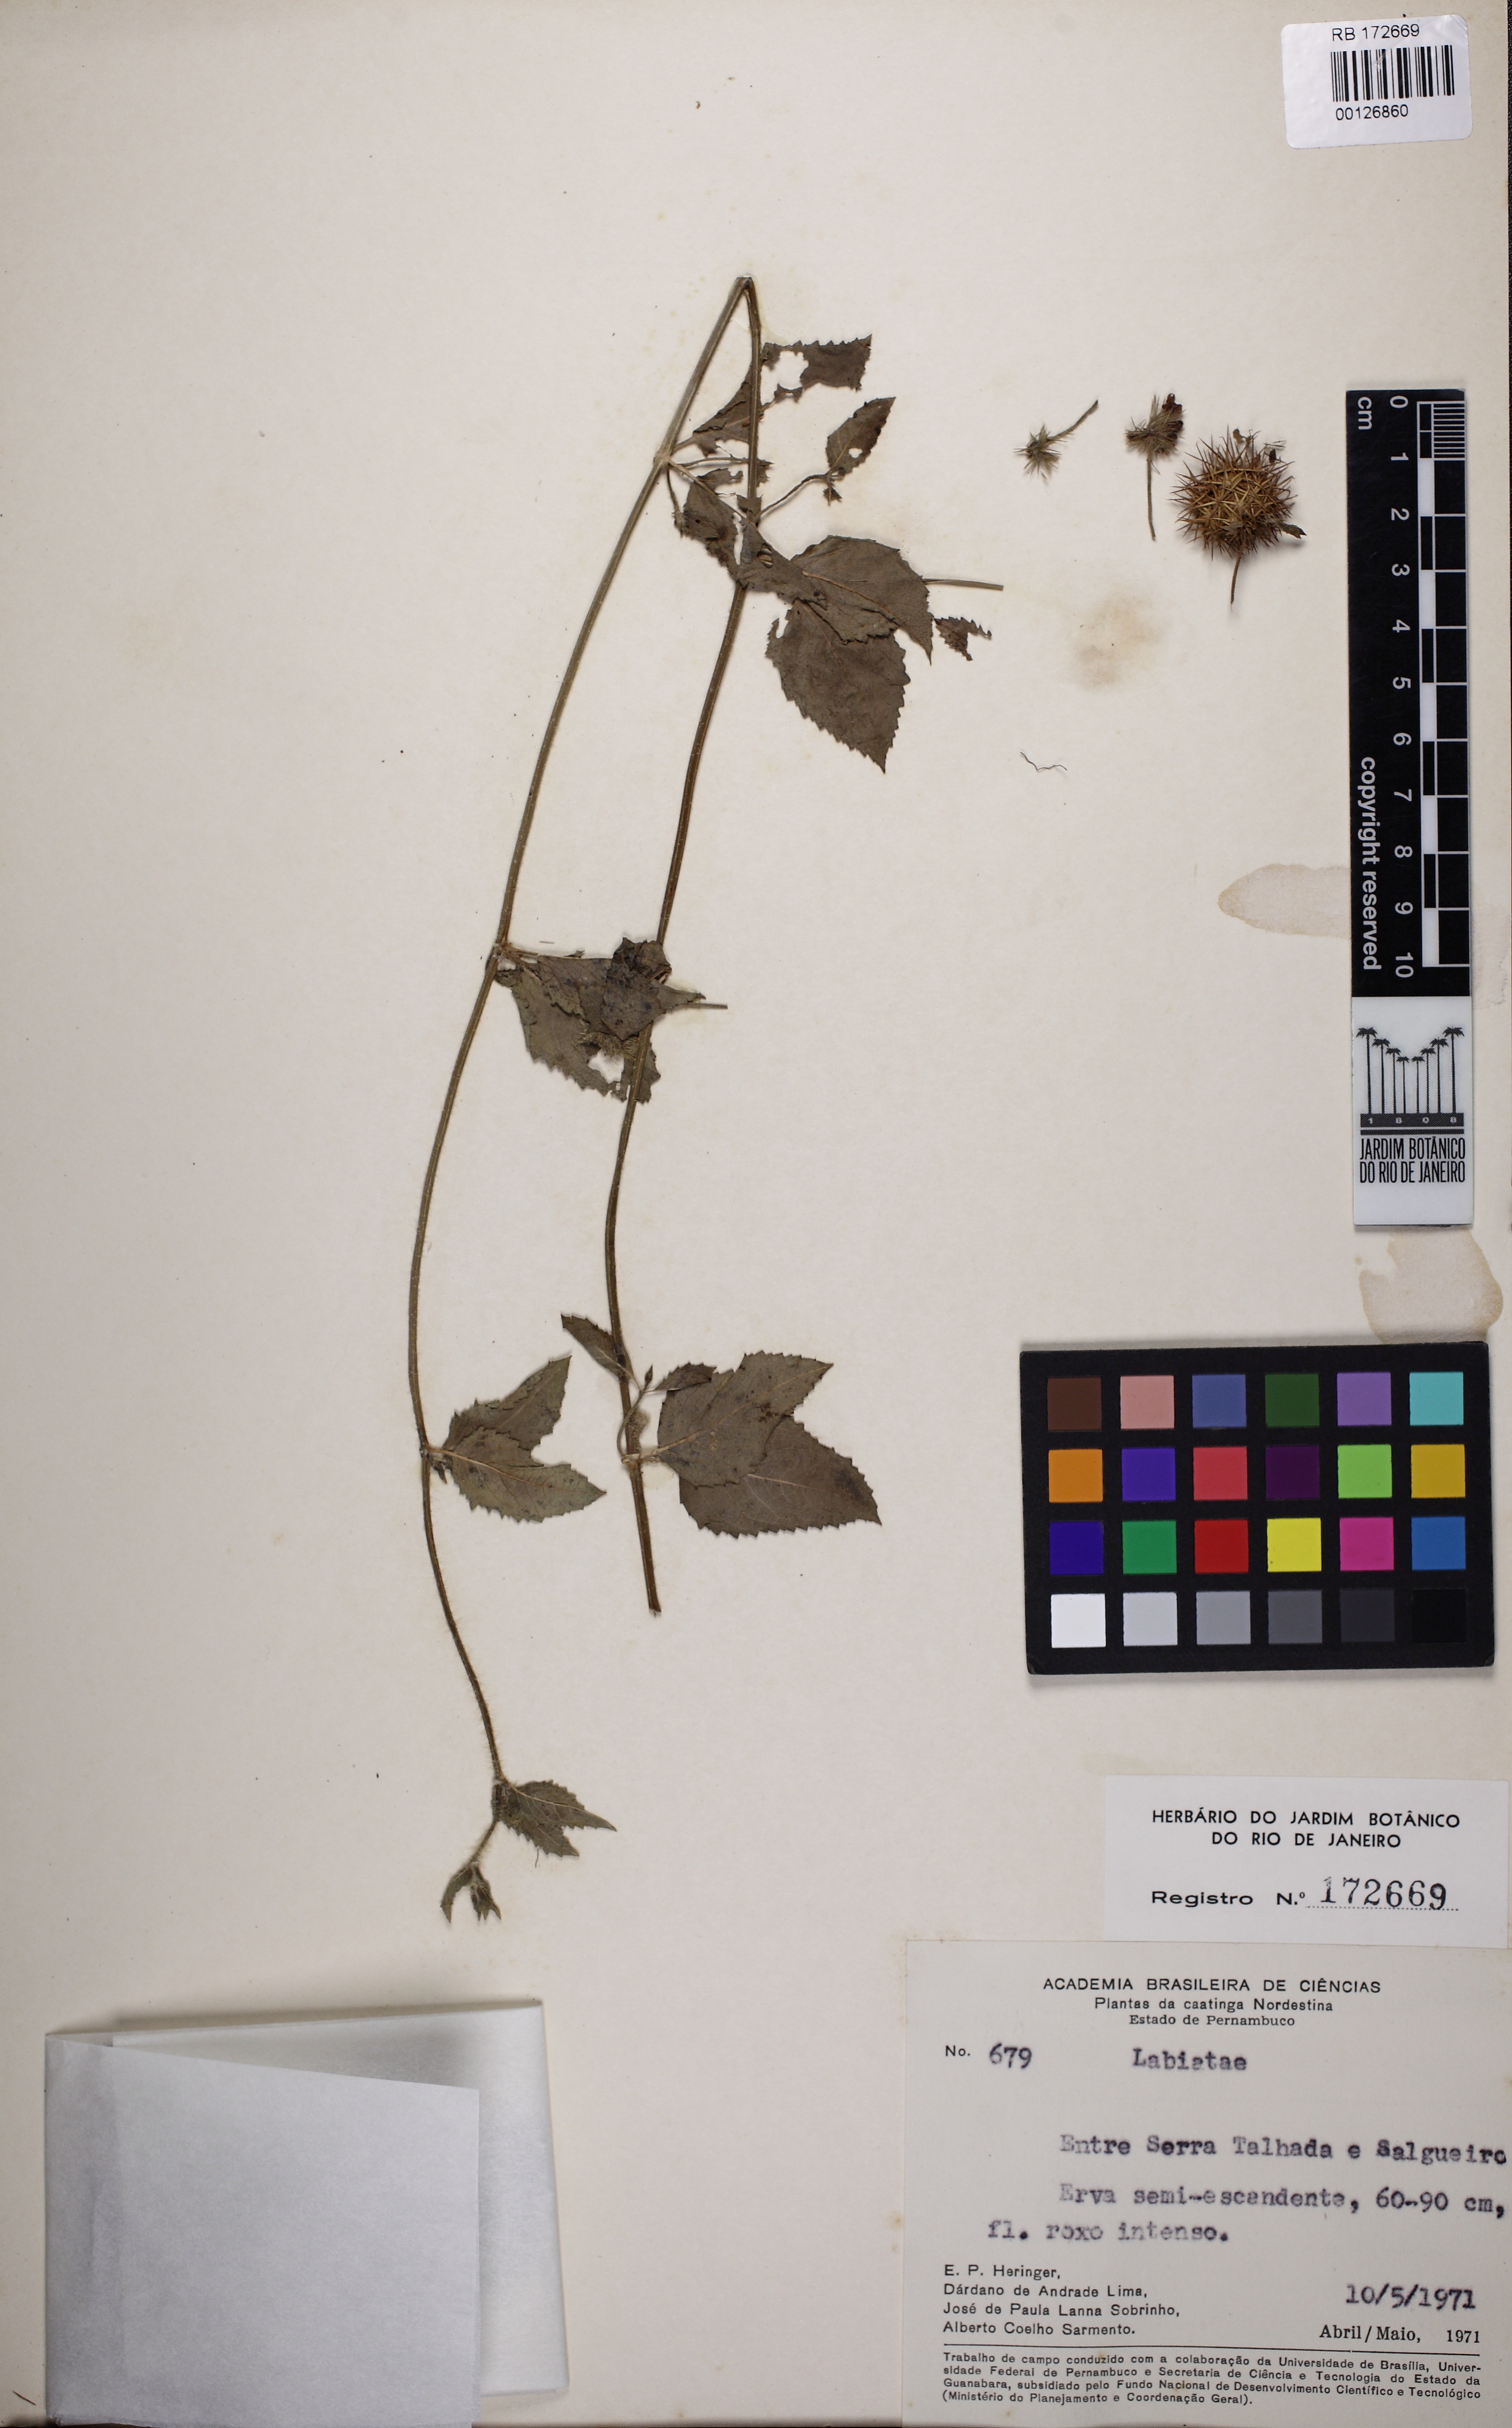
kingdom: Plantae
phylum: Tracheophyta
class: Magnoliopsida
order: Lamiales
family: Lamiaceae
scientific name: Lamiaceae
